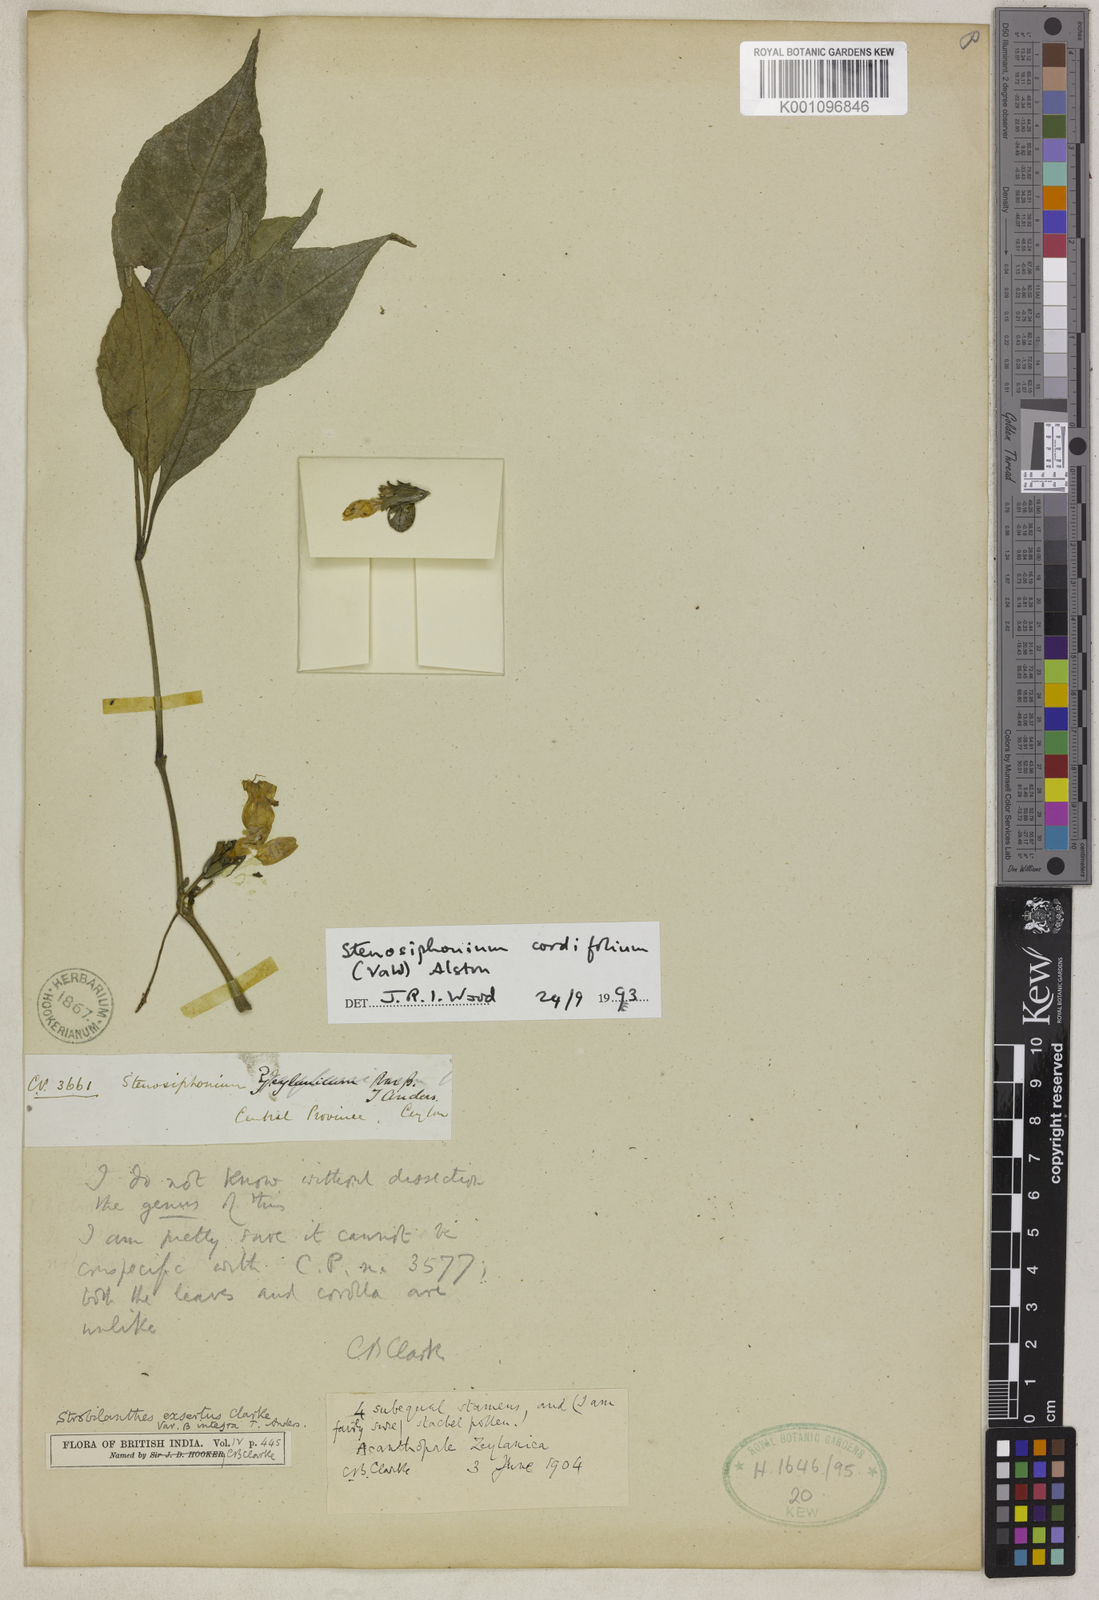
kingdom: Plantae
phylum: Tracheophyta
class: Magnoliopsida
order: Lamiales
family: Acanthaceae
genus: Strobilanthes
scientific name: Strobilanthes cordifolia
